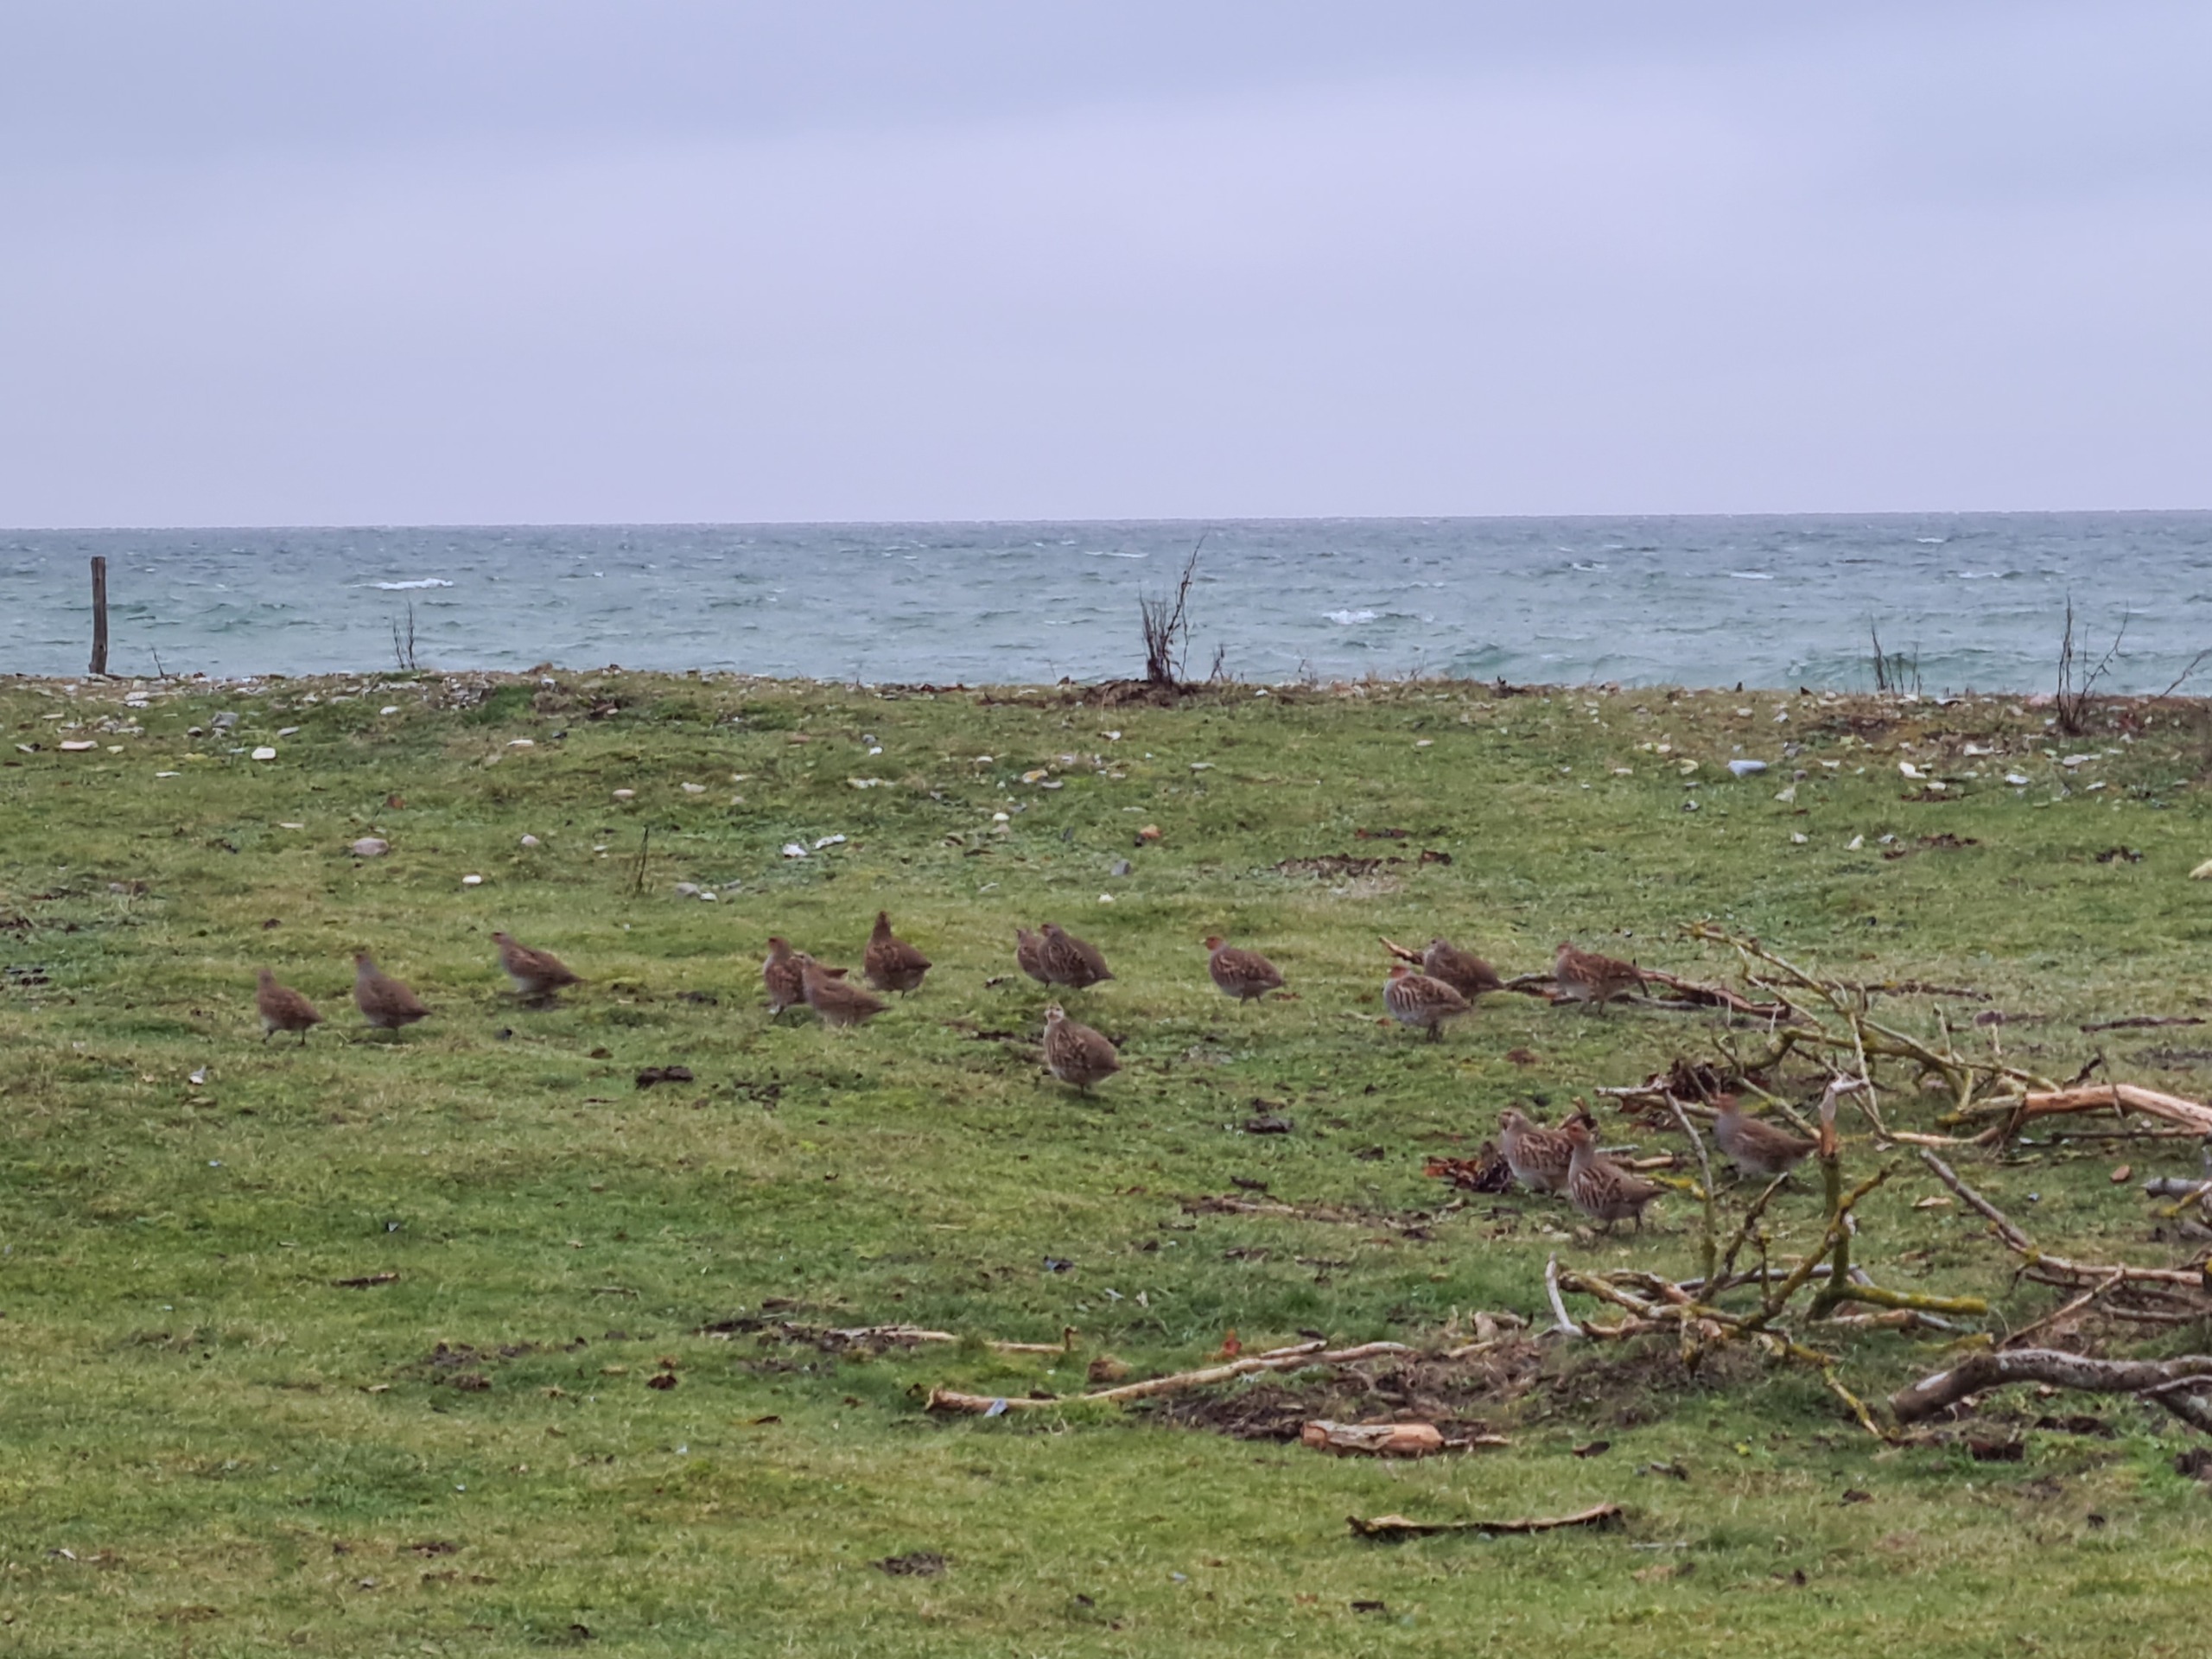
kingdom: Animalia
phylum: Chordata
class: Aves
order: Galliformes
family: Phasianidae
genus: Perdix
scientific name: Perdix perdix
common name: Agerhøne
